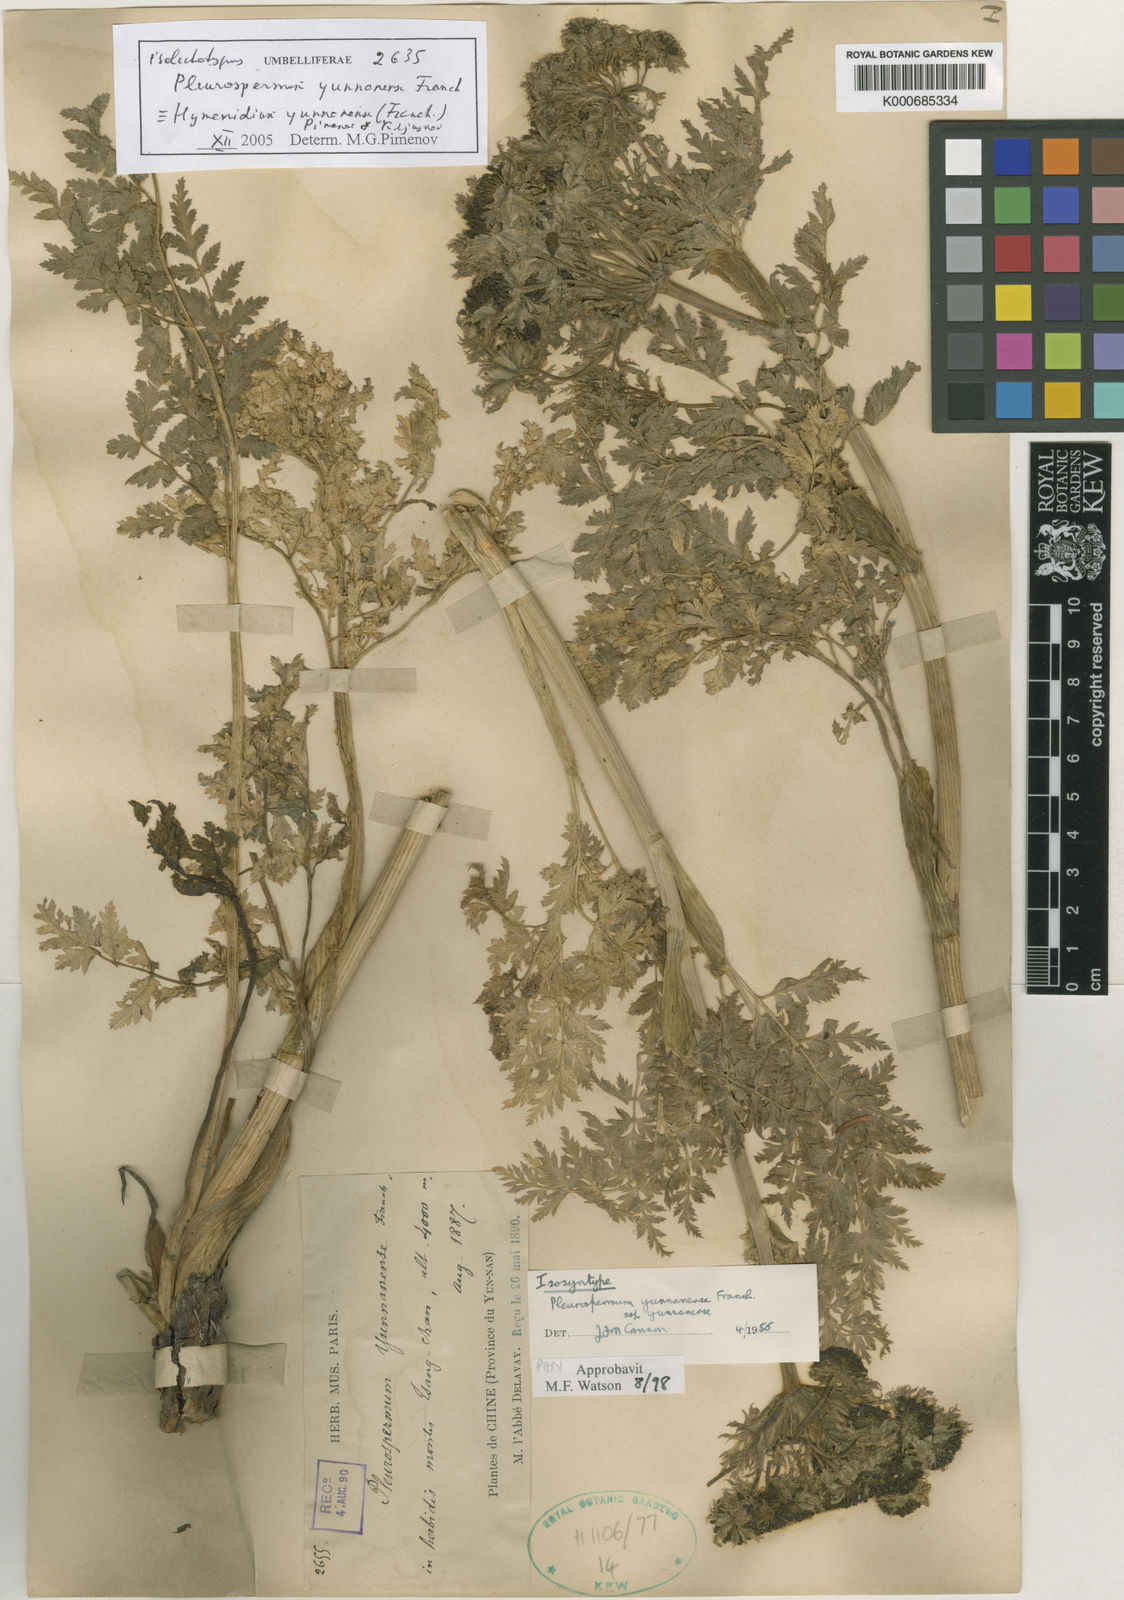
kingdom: Plantae
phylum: Tracheophyta
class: Magnoliopsida
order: Apiales
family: Apiaceae
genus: Pleurospermum
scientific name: Pleurospermum yunnanense
